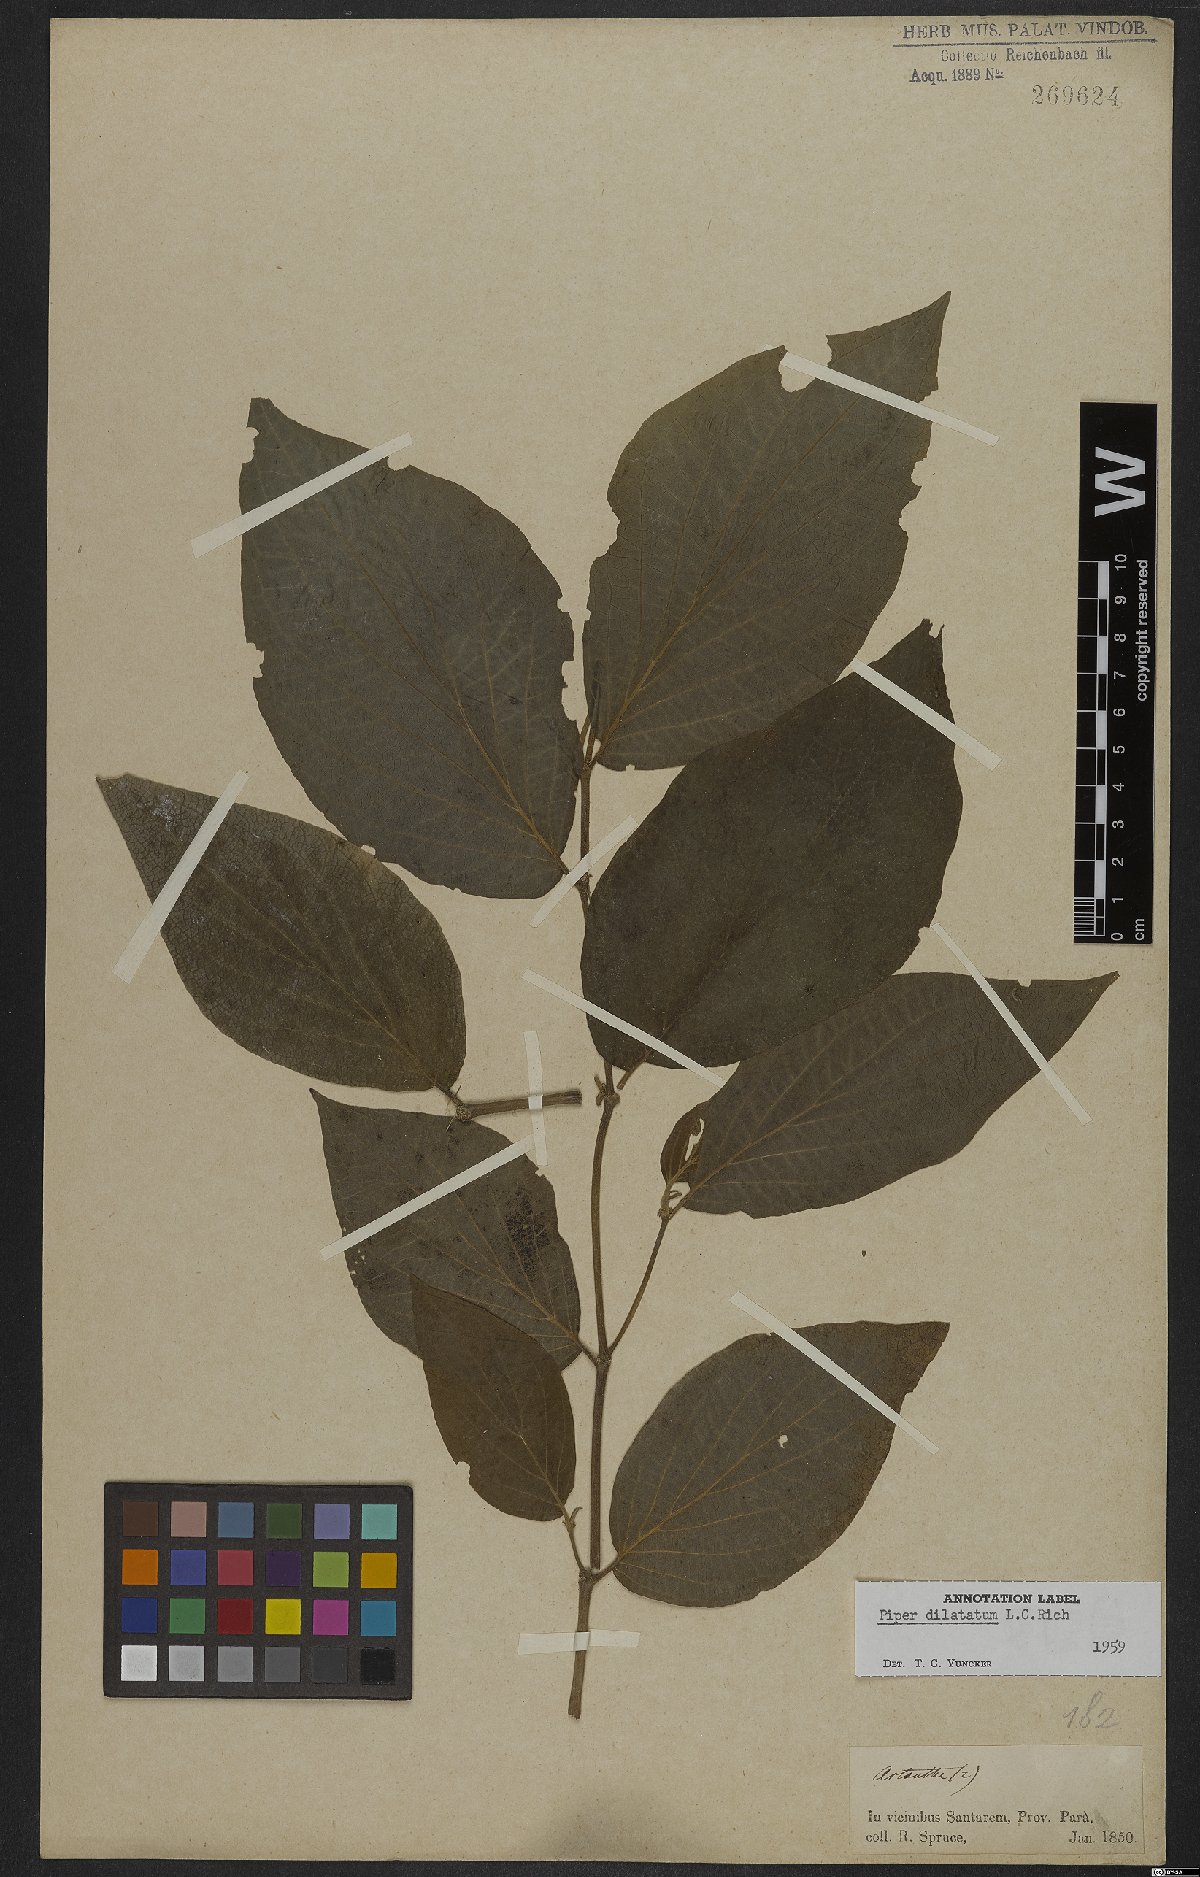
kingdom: Plantae
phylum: Tracheophyta
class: Magnoliopsida
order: Piperales
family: Piperaceae
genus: Piper
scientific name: Piper dilatatum
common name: Higuillo
